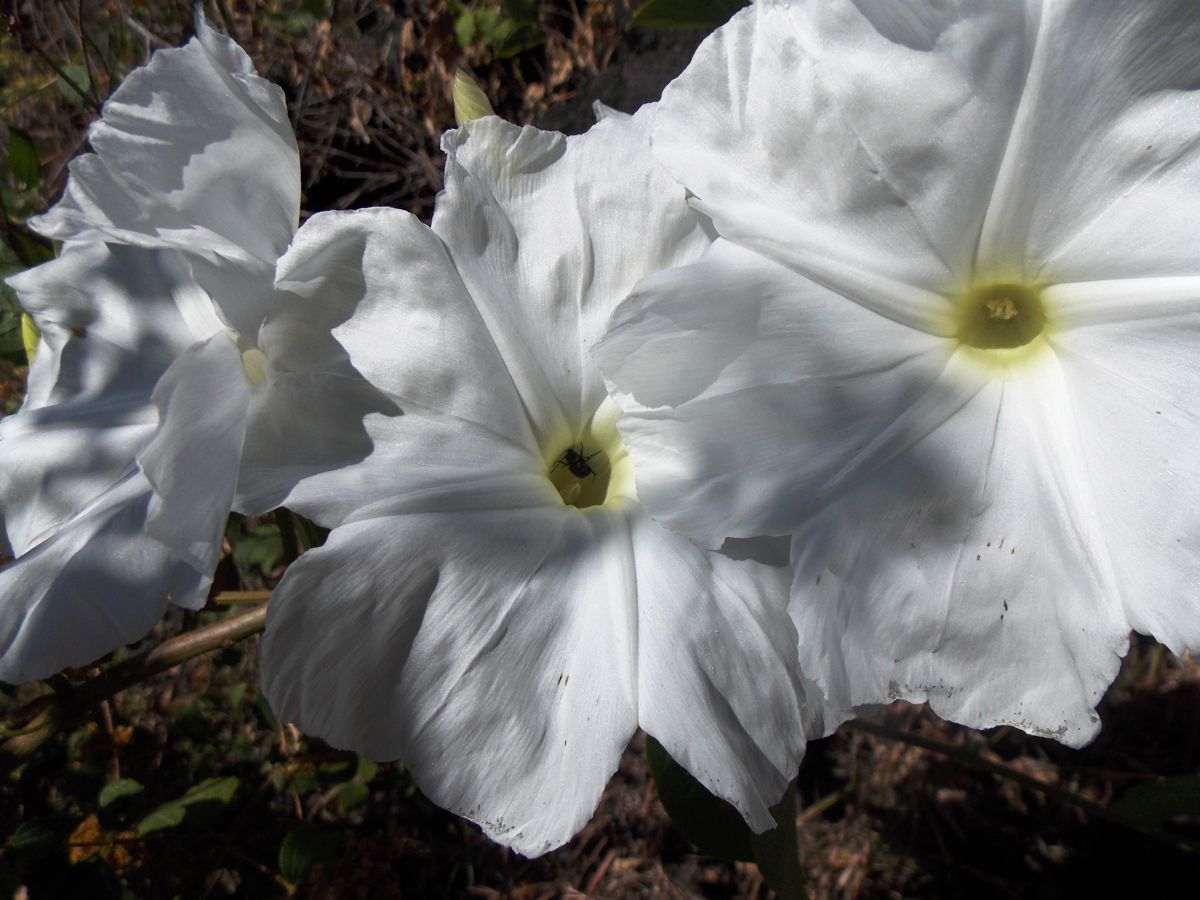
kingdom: Plantae
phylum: Tracheophyta
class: Magnoliopsida
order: Solanales
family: Convolvulaceae
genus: Ipomoea
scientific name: Ipomoea wolcottiana
